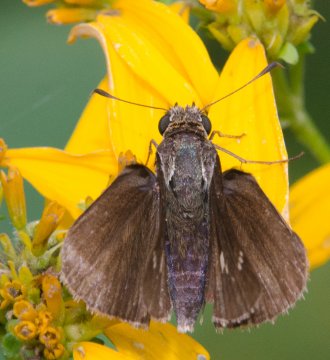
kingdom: Animalia
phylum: Arthropoda
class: Insecta
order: Lepidoptera
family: Hesperiidae
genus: Euphyes
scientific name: Euphyes vestris
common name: Dun Skipper
